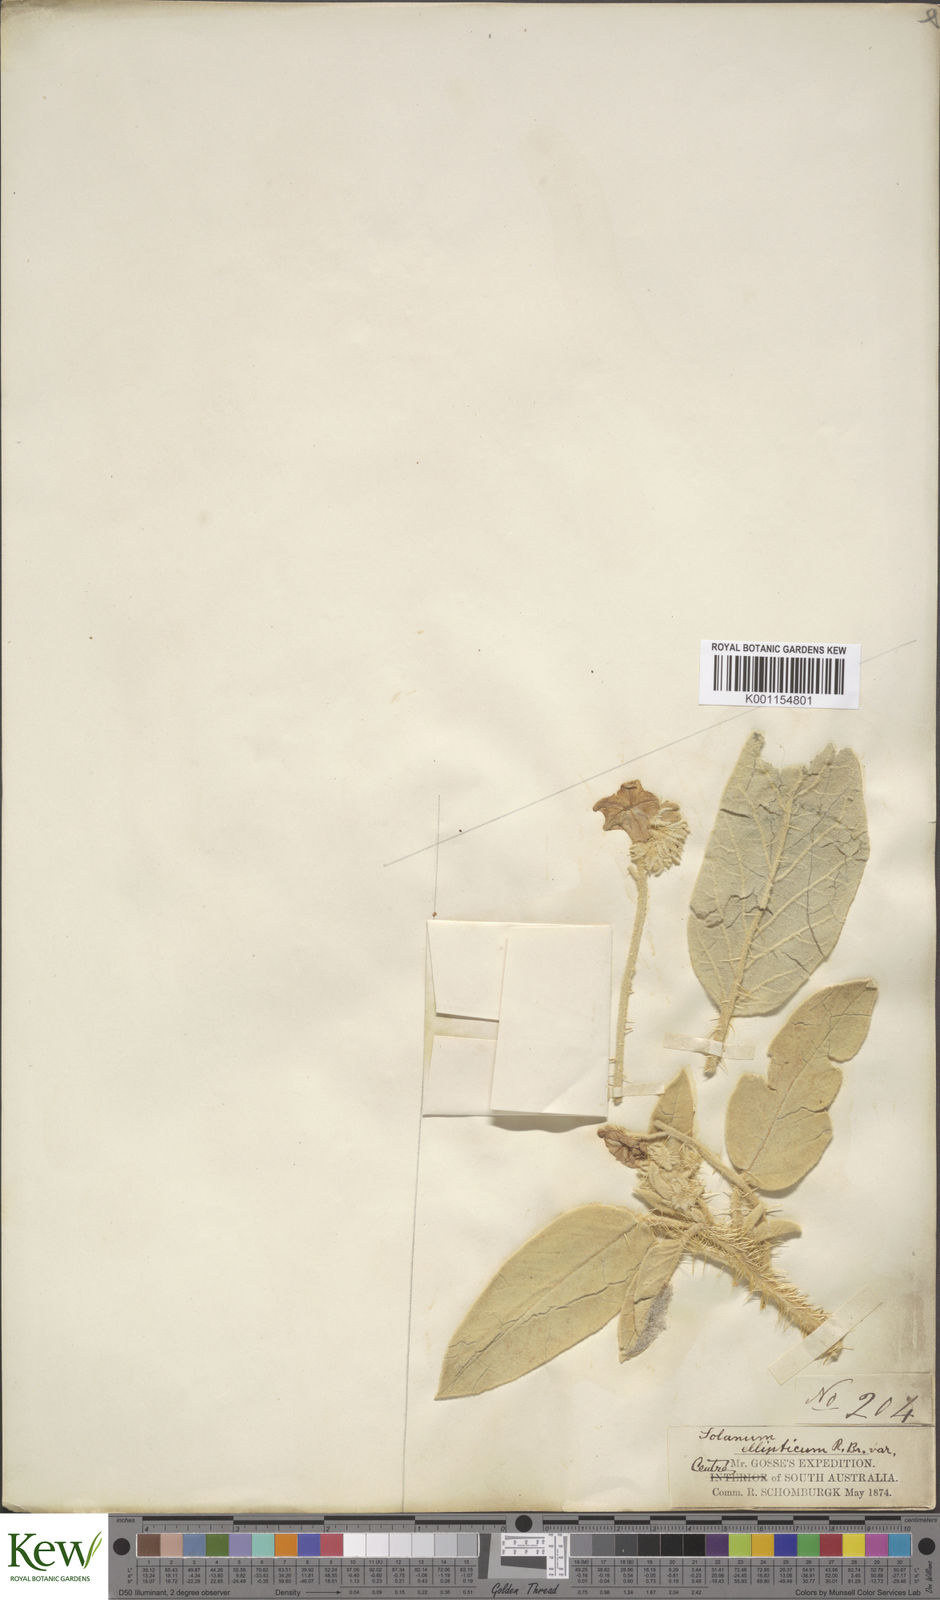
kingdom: Plantae
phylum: Tracheophyta
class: Magnoliopsida
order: Solanales
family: Solanaceae
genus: Solanum
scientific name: Solanum quadriloculatum
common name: Wild tomato
